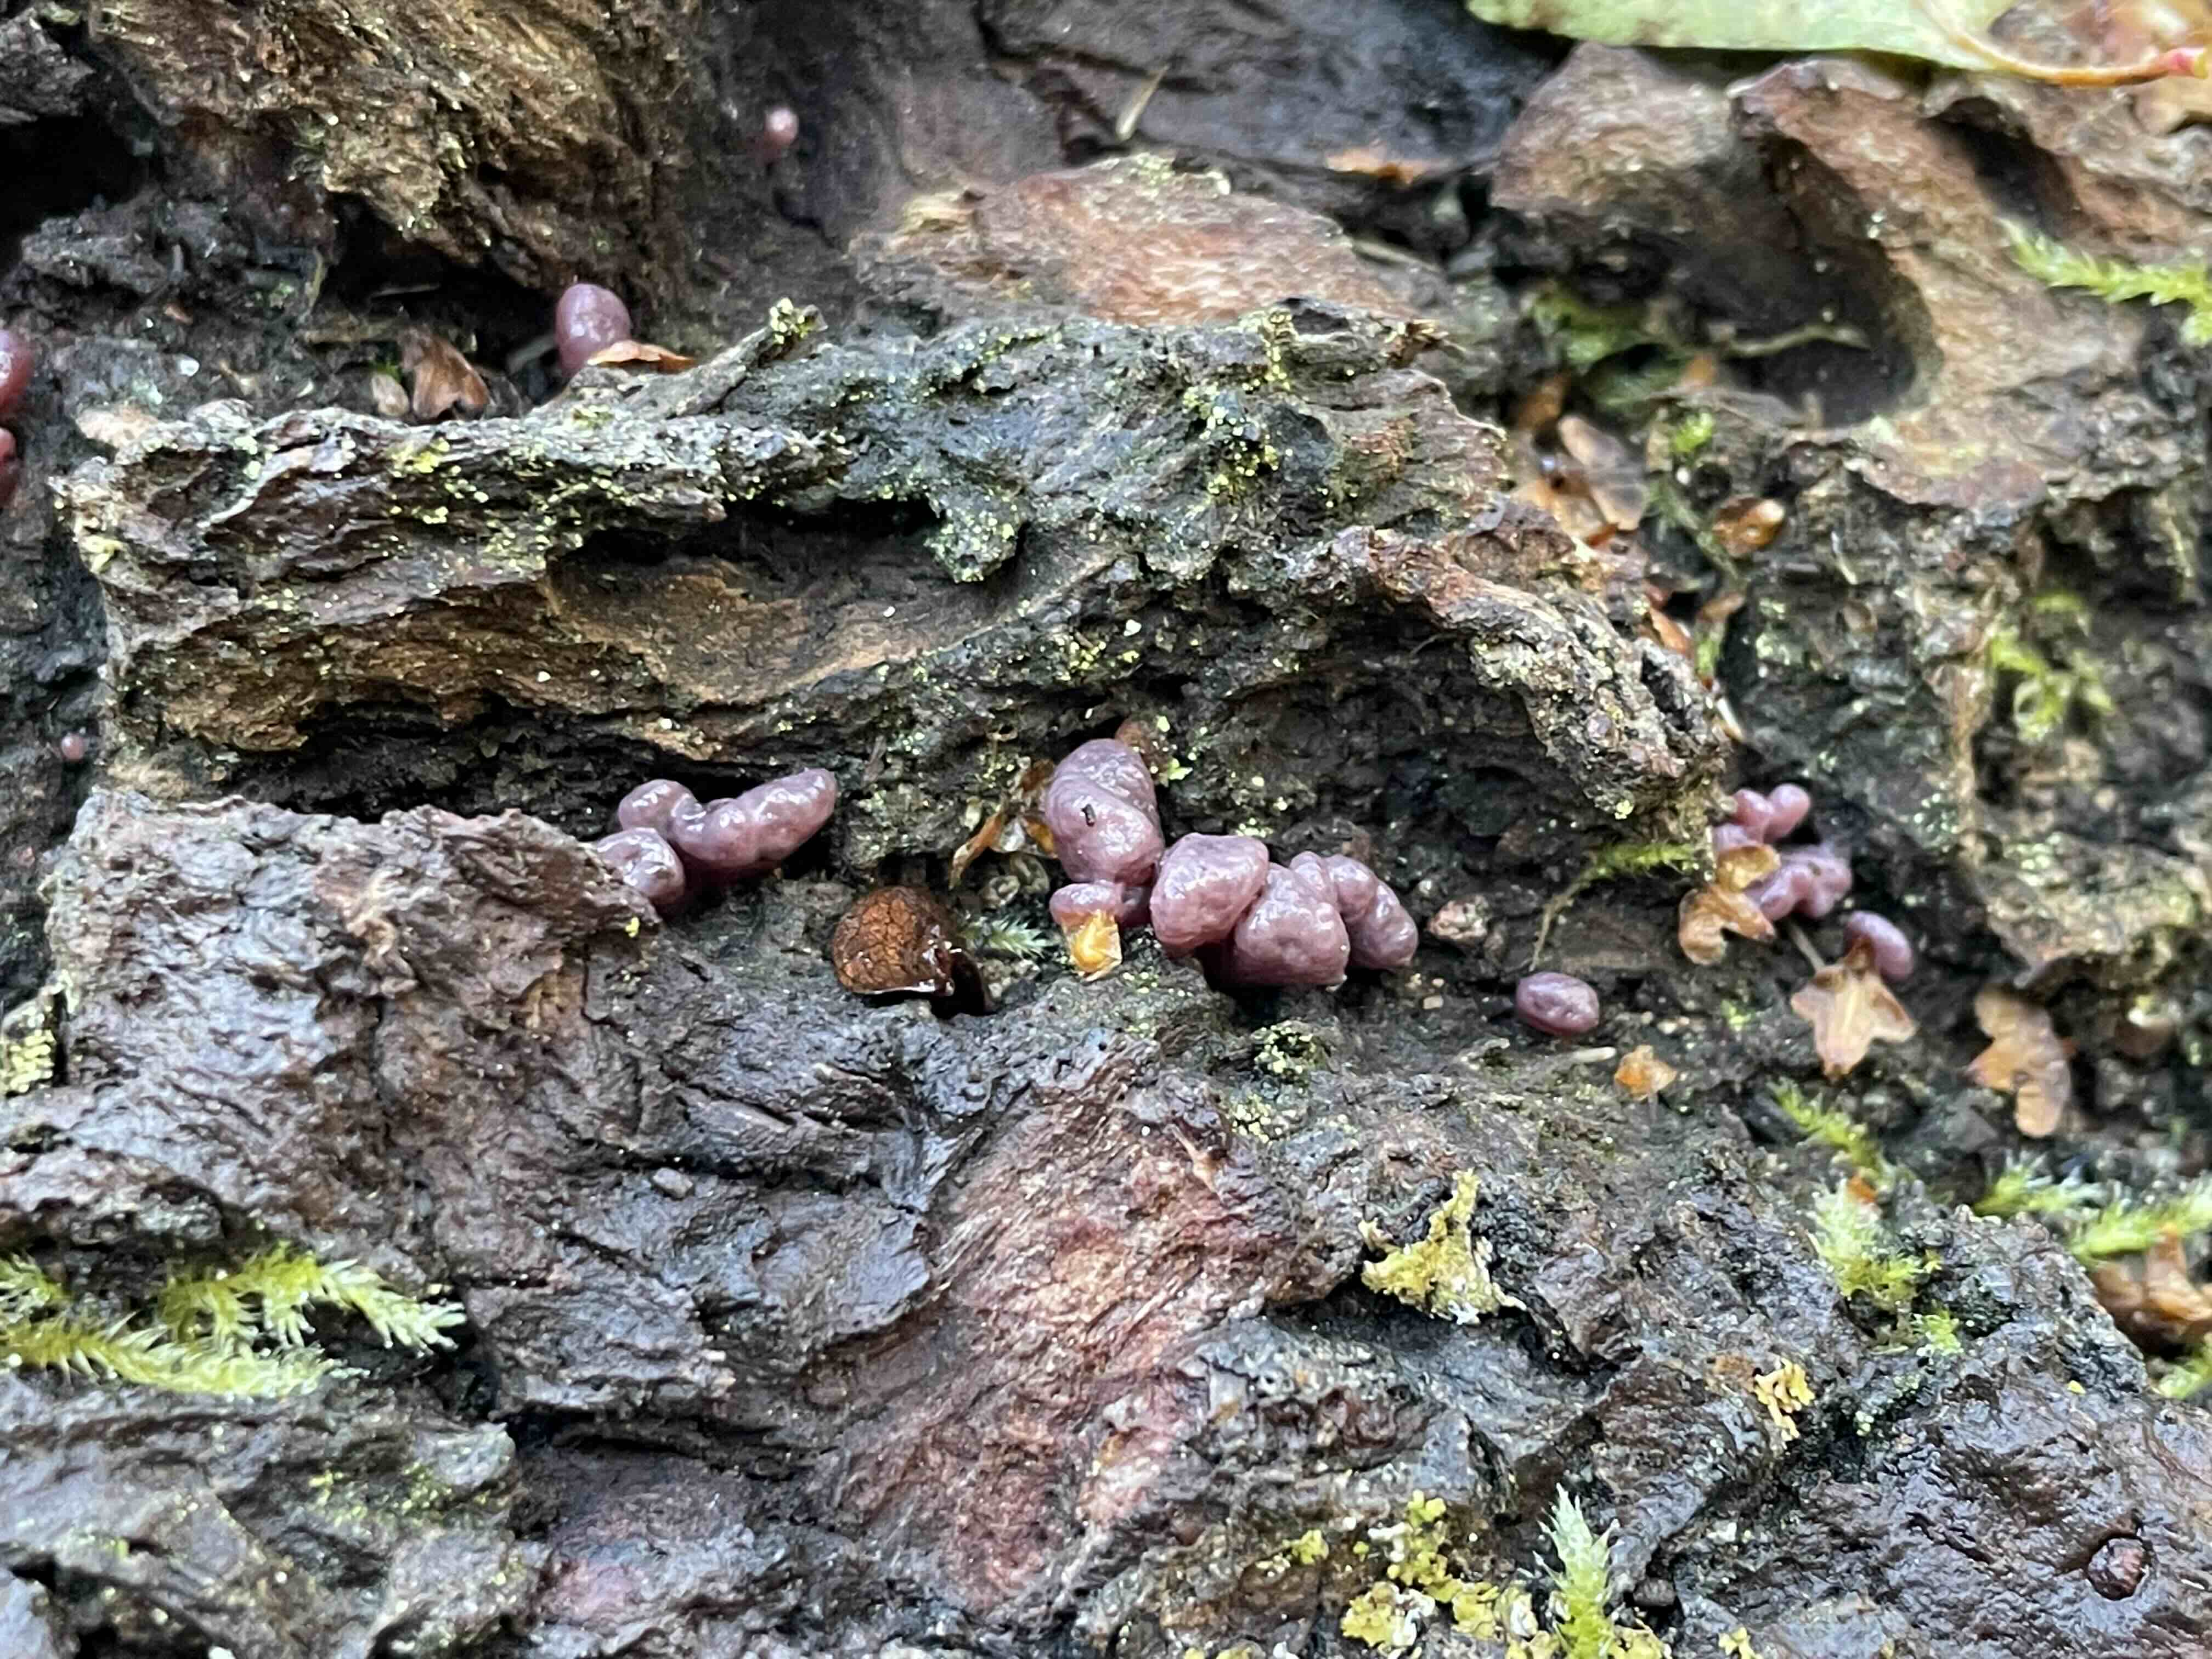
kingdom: Fungi
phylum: Ascomycota
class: Leotiomycetes
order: Helotiales
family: Gelatinodiscaceae
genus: Ascocoryne
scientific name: Ascocoryne sarcoides
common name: rødlilla sejskive
